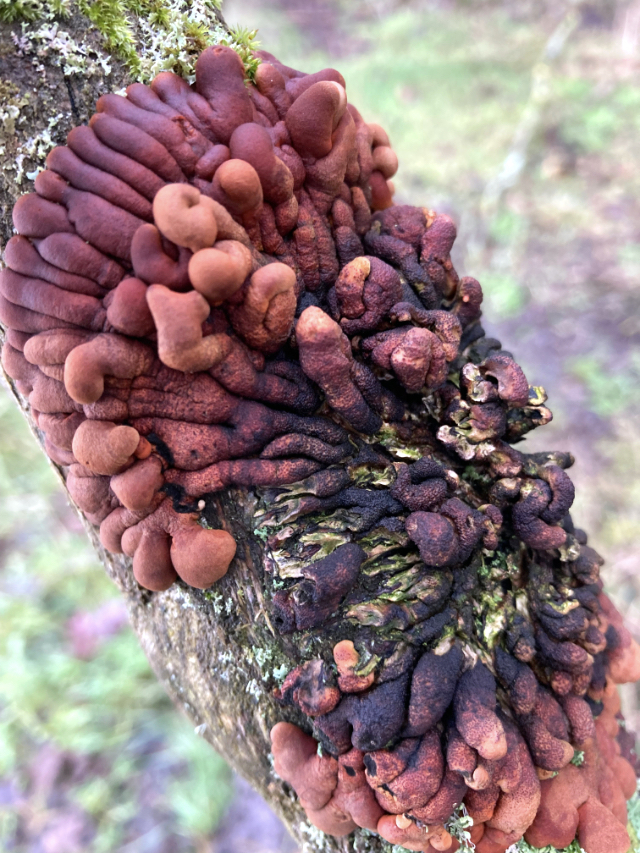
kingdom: Fungi
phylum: Ascomycota
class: Sordariomycetes
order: Hypocreales
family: Hypocreaceae
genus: Hypocreopsis
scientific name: Hypocreopsis lichenoides
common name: pilfinger
